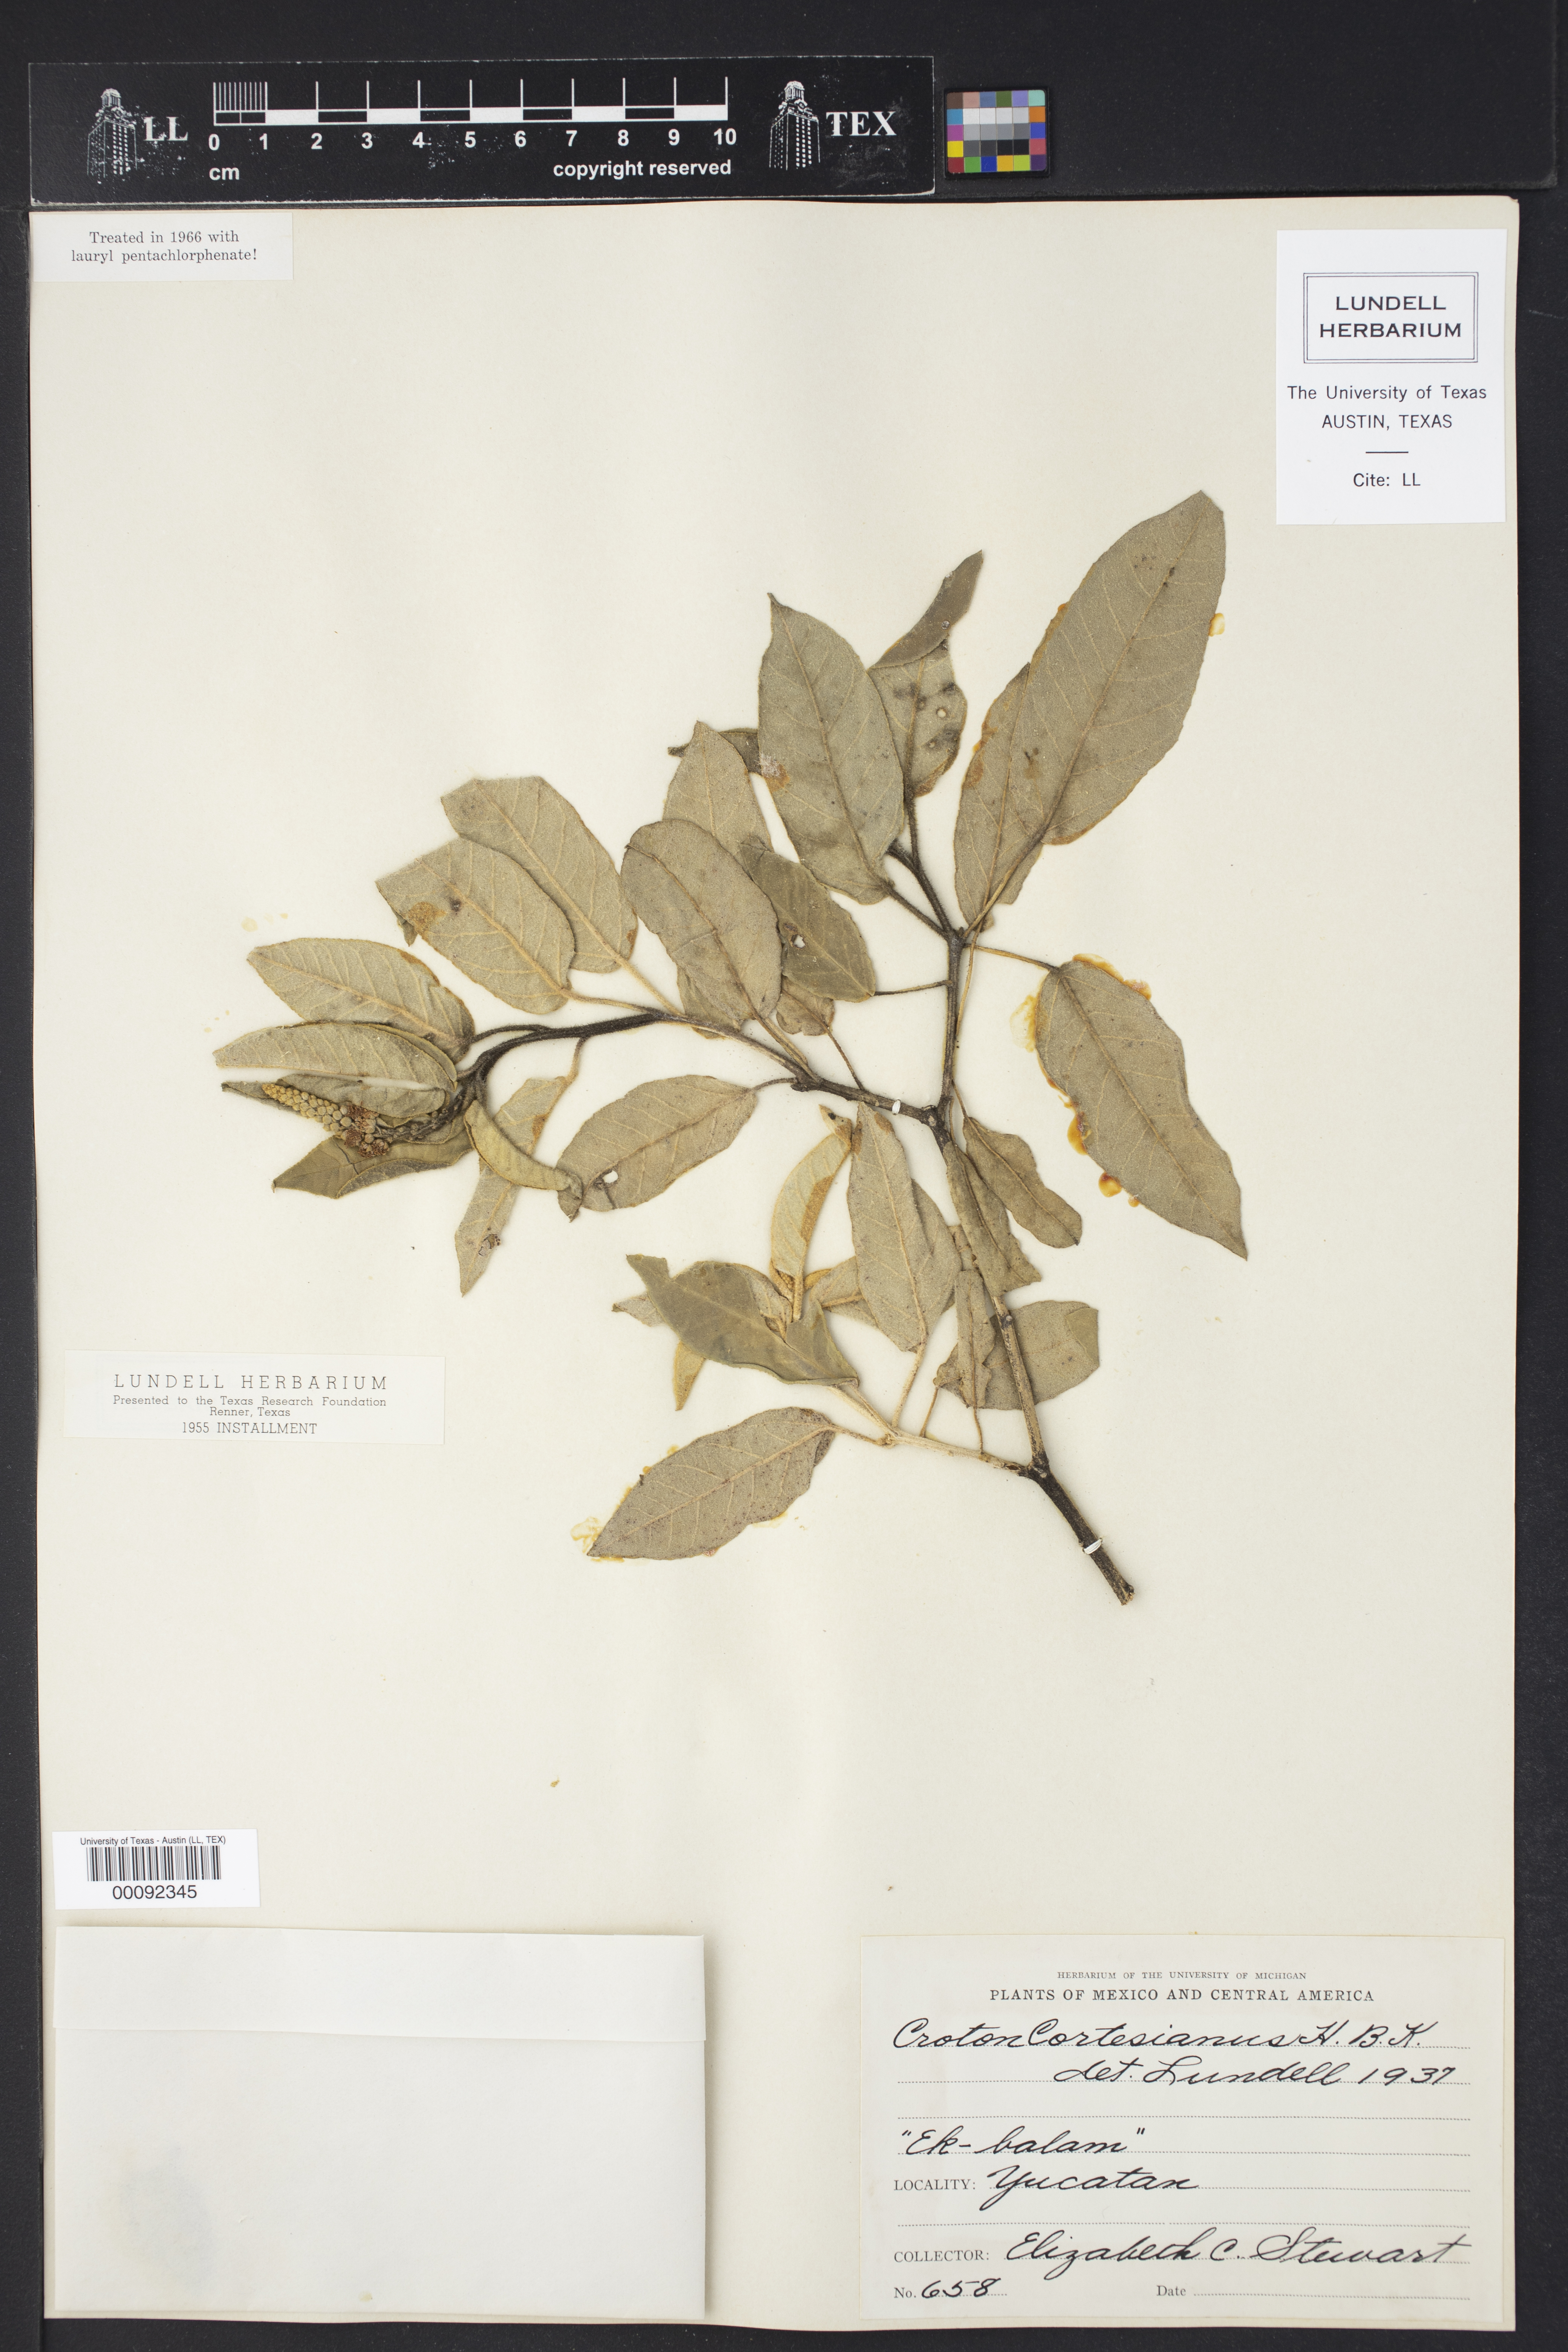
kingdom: Plantae
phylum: Tracheophyta
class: Magnoliopsida
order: Malpighiales
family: Euphorbiaceae
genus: Croton
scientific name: Croton cortesianus
